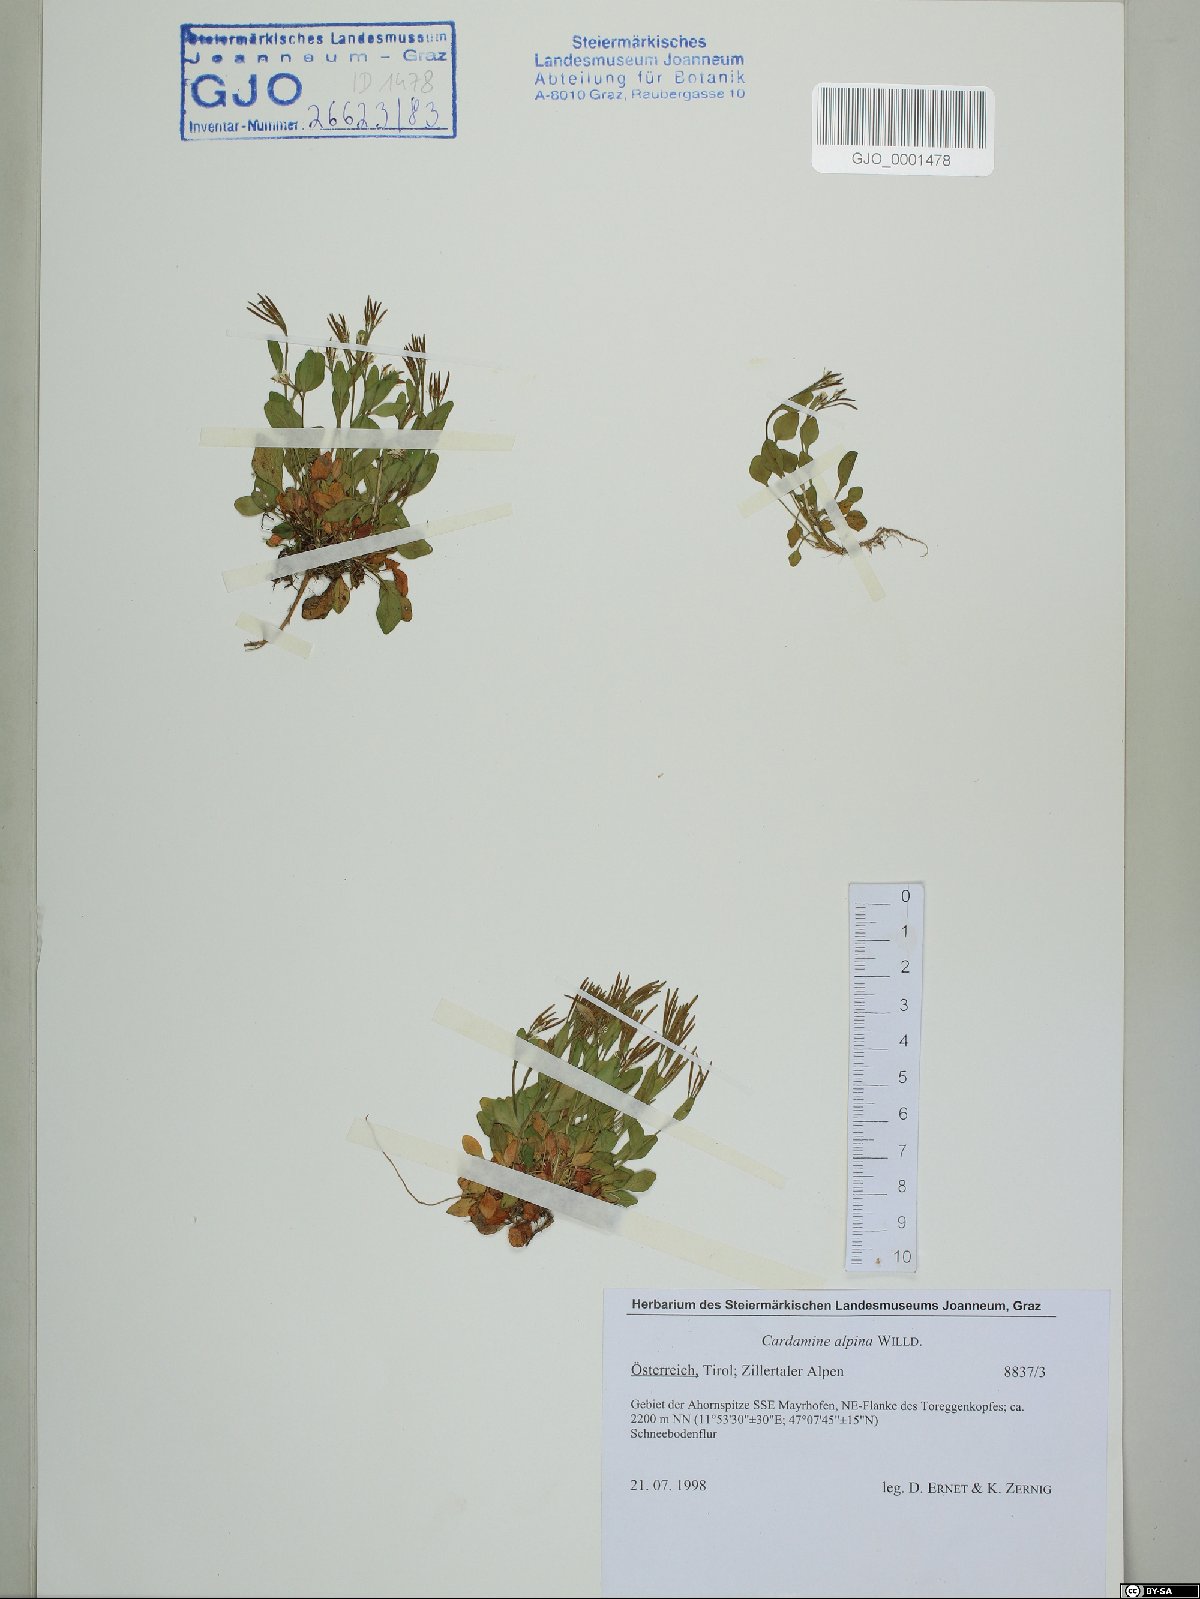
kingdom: Plantae
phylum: Tracheophyta
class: Magnoliopsida
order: Brassicales
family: Brassicaceae
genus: Cardamine
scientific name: Cardamine bellidifolia
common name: Alpine bittercress
